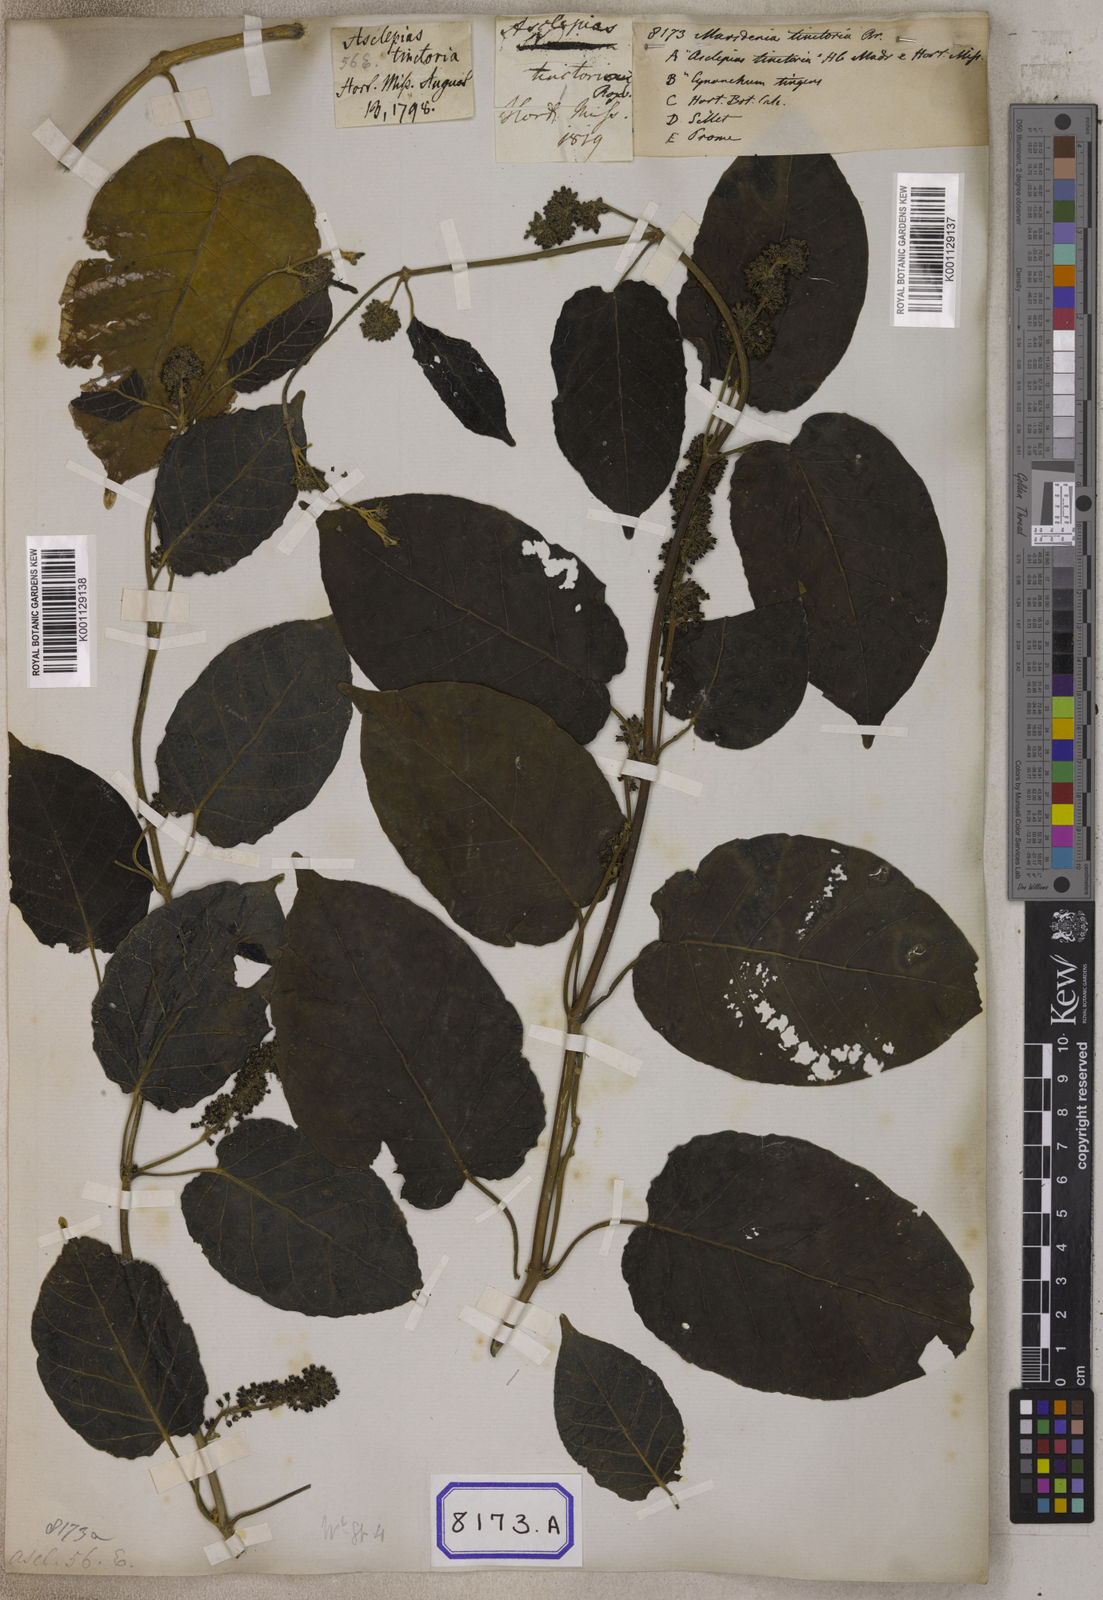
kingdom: Plantae
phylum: Tracheophyta
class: Magnoliopsida
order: Gentianales
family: Apocynaceae
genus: Marsdenia
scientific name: Marsdenia tinctoria
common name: Climbing-indigo
